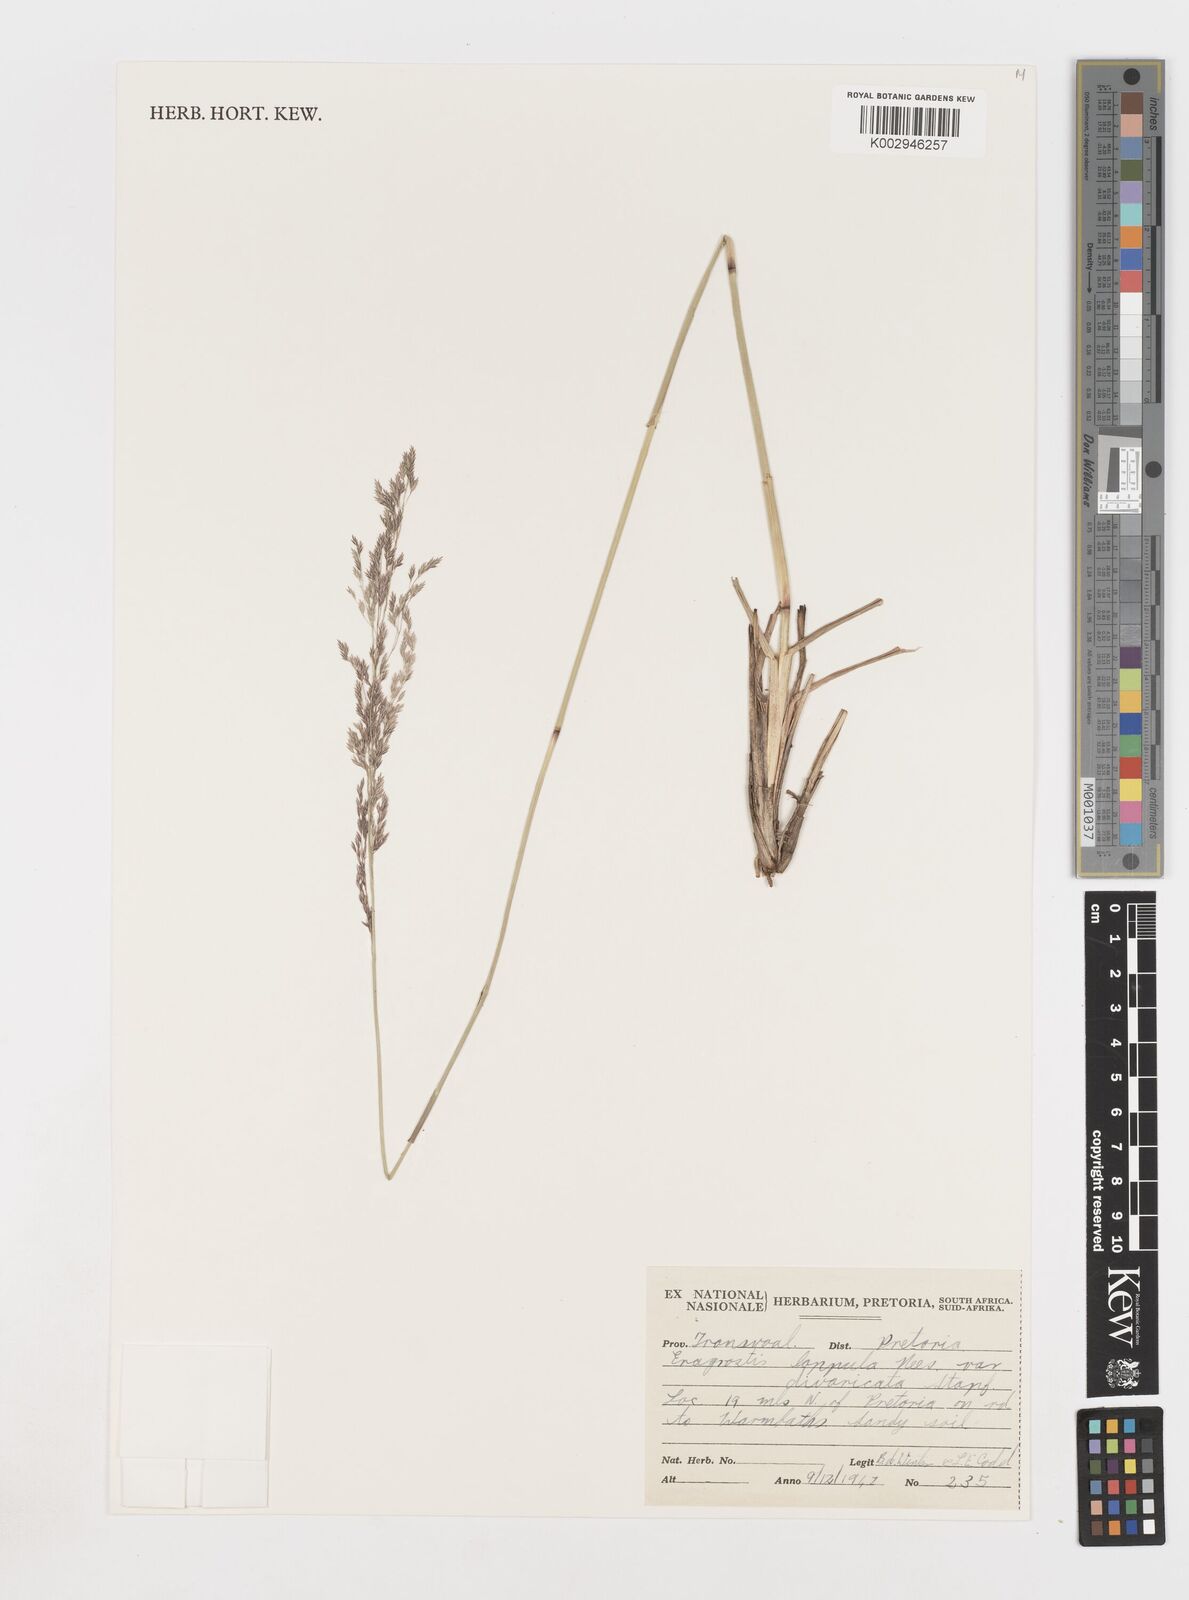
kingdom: Plantae
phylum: Tracheophyta
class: Liliopsida
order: Poales
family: Poaceae
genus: Eragrostis
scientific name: Eragrostis lappula
